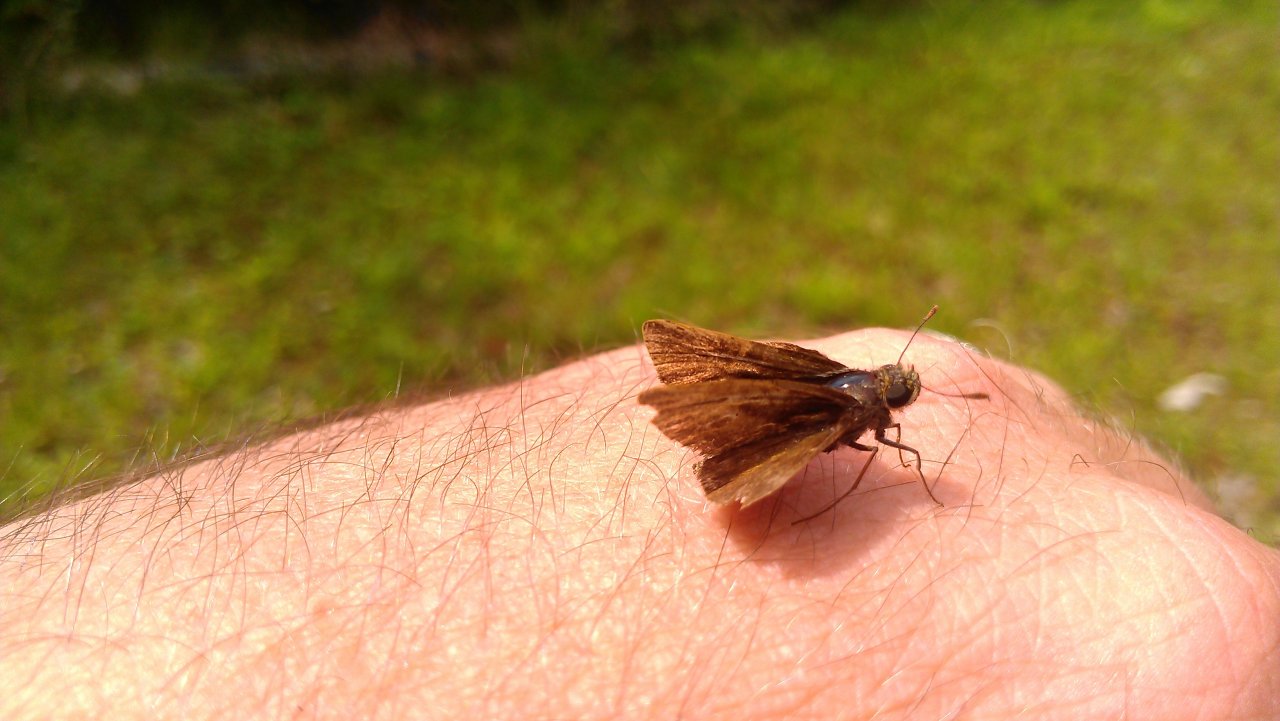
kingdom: Animalia
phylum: Arthropoda
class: Insecta
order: Lepidoptera
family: Hesperiidae
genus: Euphyes
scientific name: Euphyes vestris
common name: Dun Skipper
